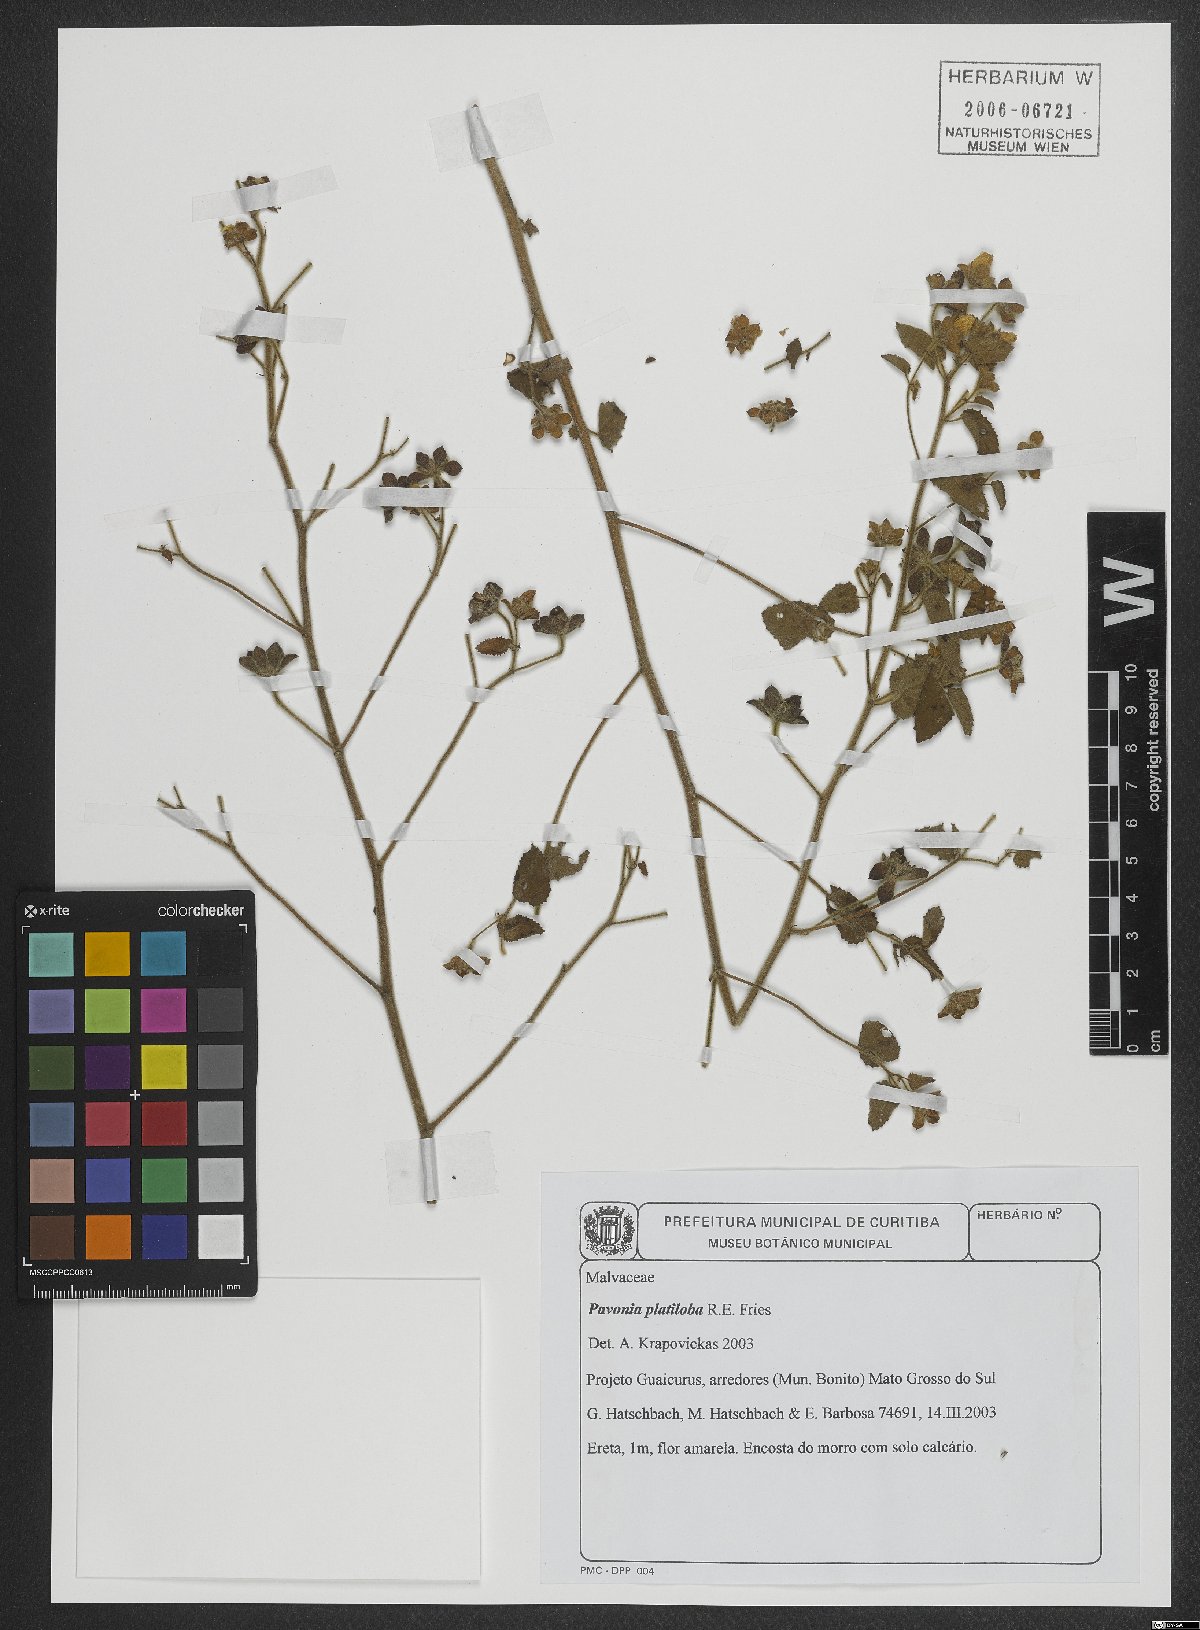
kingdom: Plantae
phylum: Tracheophyta
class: Magnoliopsida
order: Malvales
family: Malvaceae
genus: Pavonia
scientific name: Pavonia platyloba
